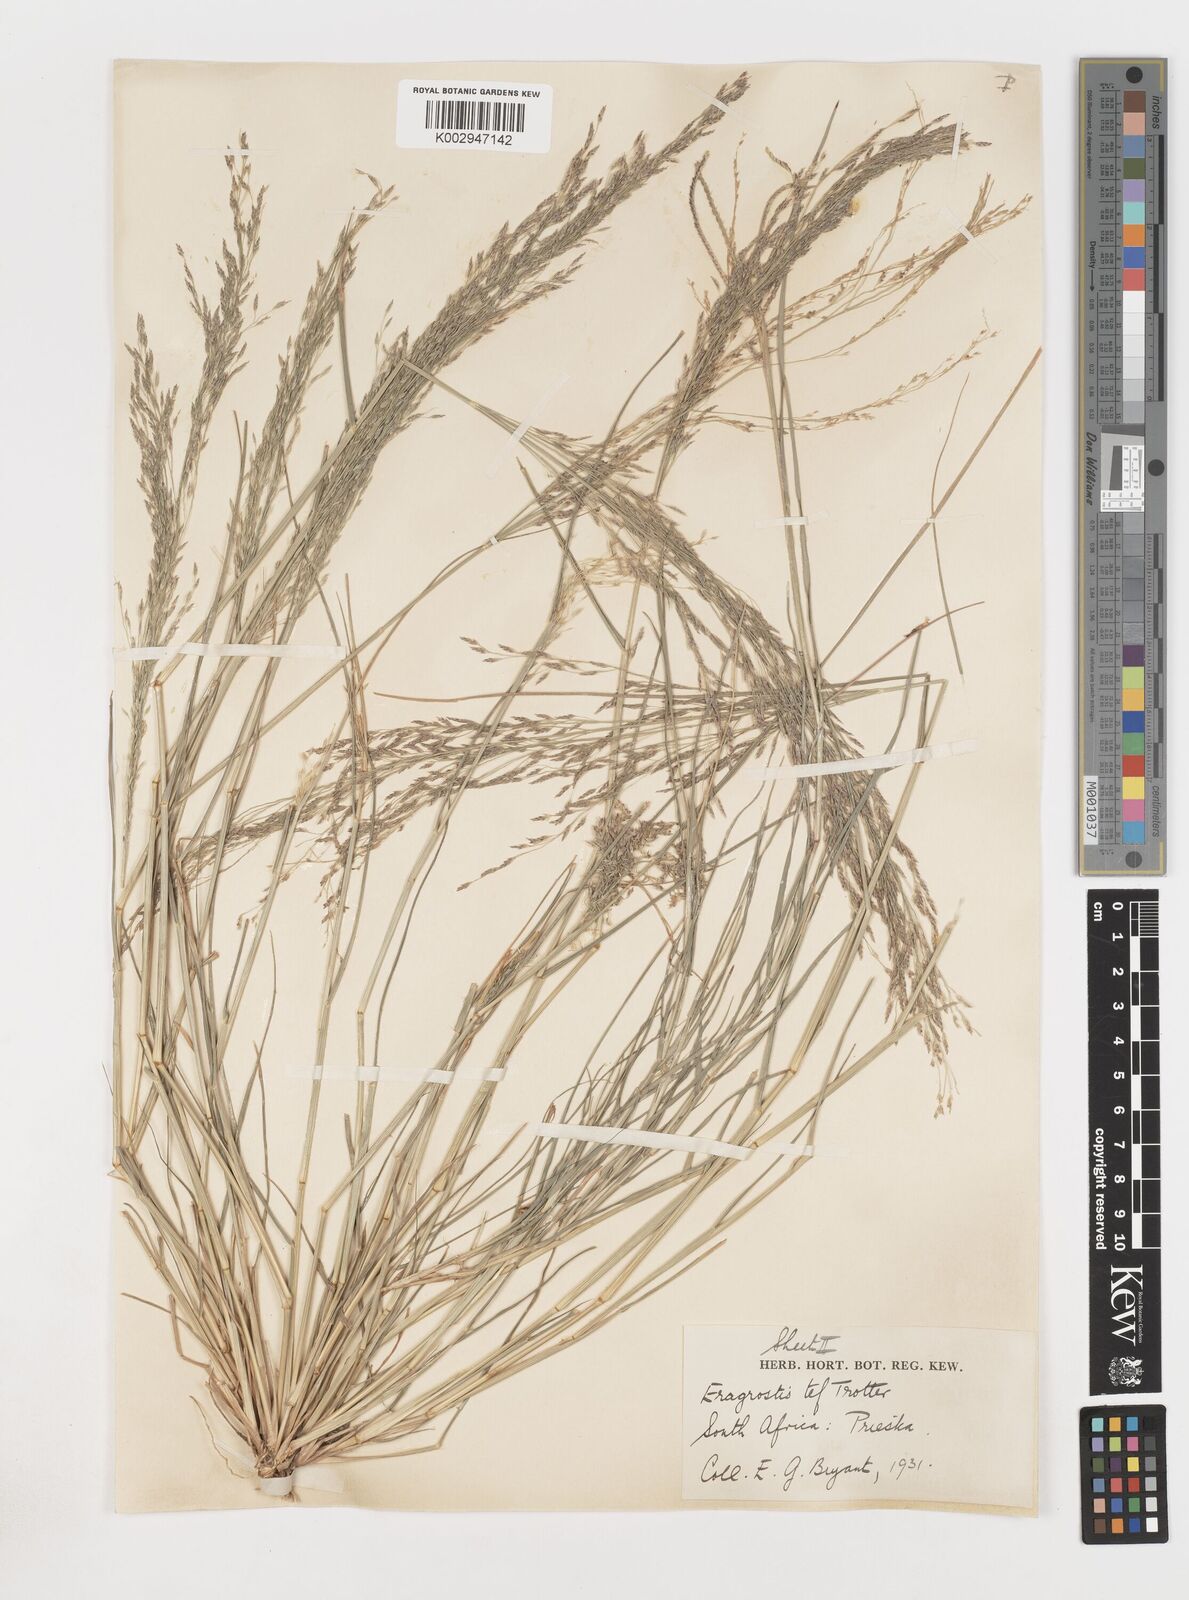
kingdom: Plantae
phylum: Tracheophyta
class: Liliopsida
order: Poales
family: Poaceae
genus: Eragrostis
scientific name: Eragrostis tef
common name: Teff
